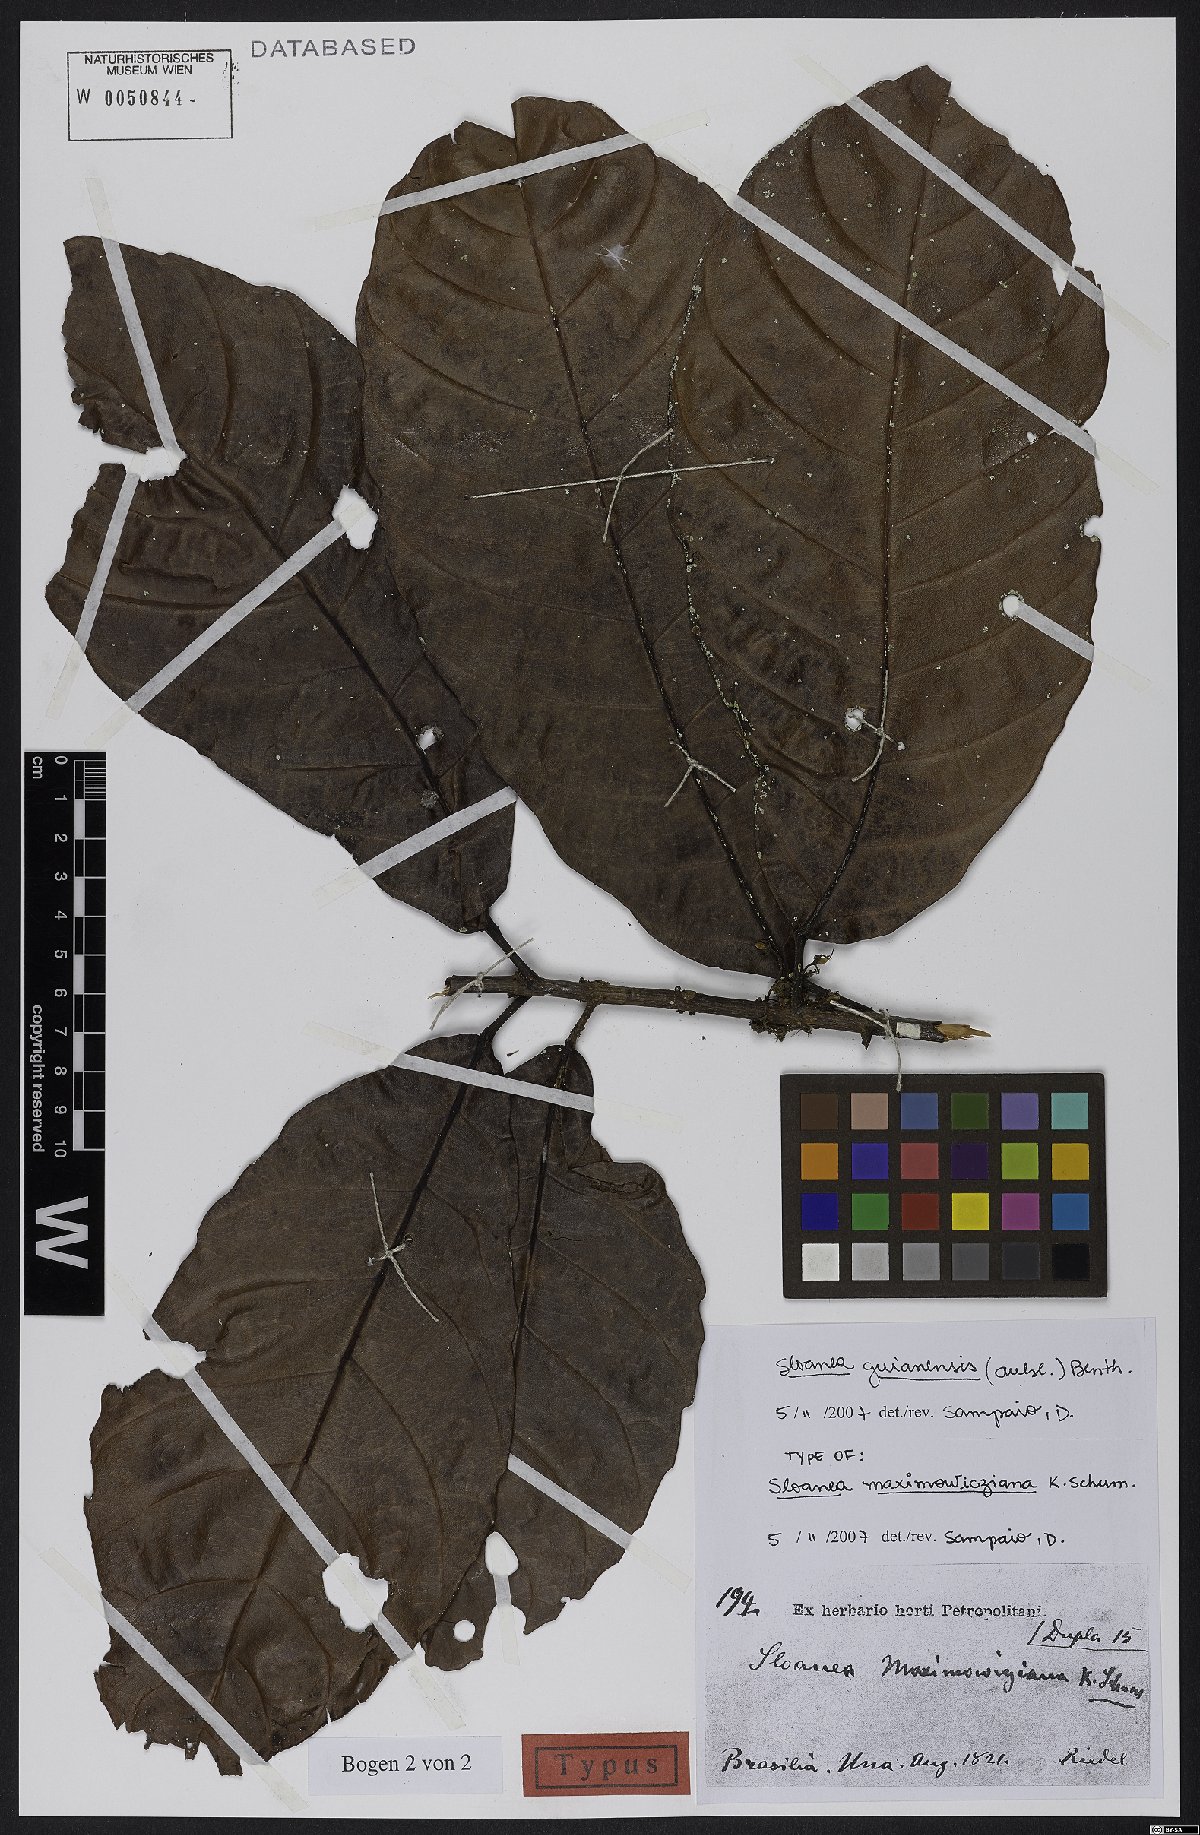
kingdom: Plantae
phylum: Tracheophyta
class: Magnoliopsida
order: Oxalidales
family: Elaeocarpaceae
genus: Sloanea
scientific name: Sloanea guianensis
